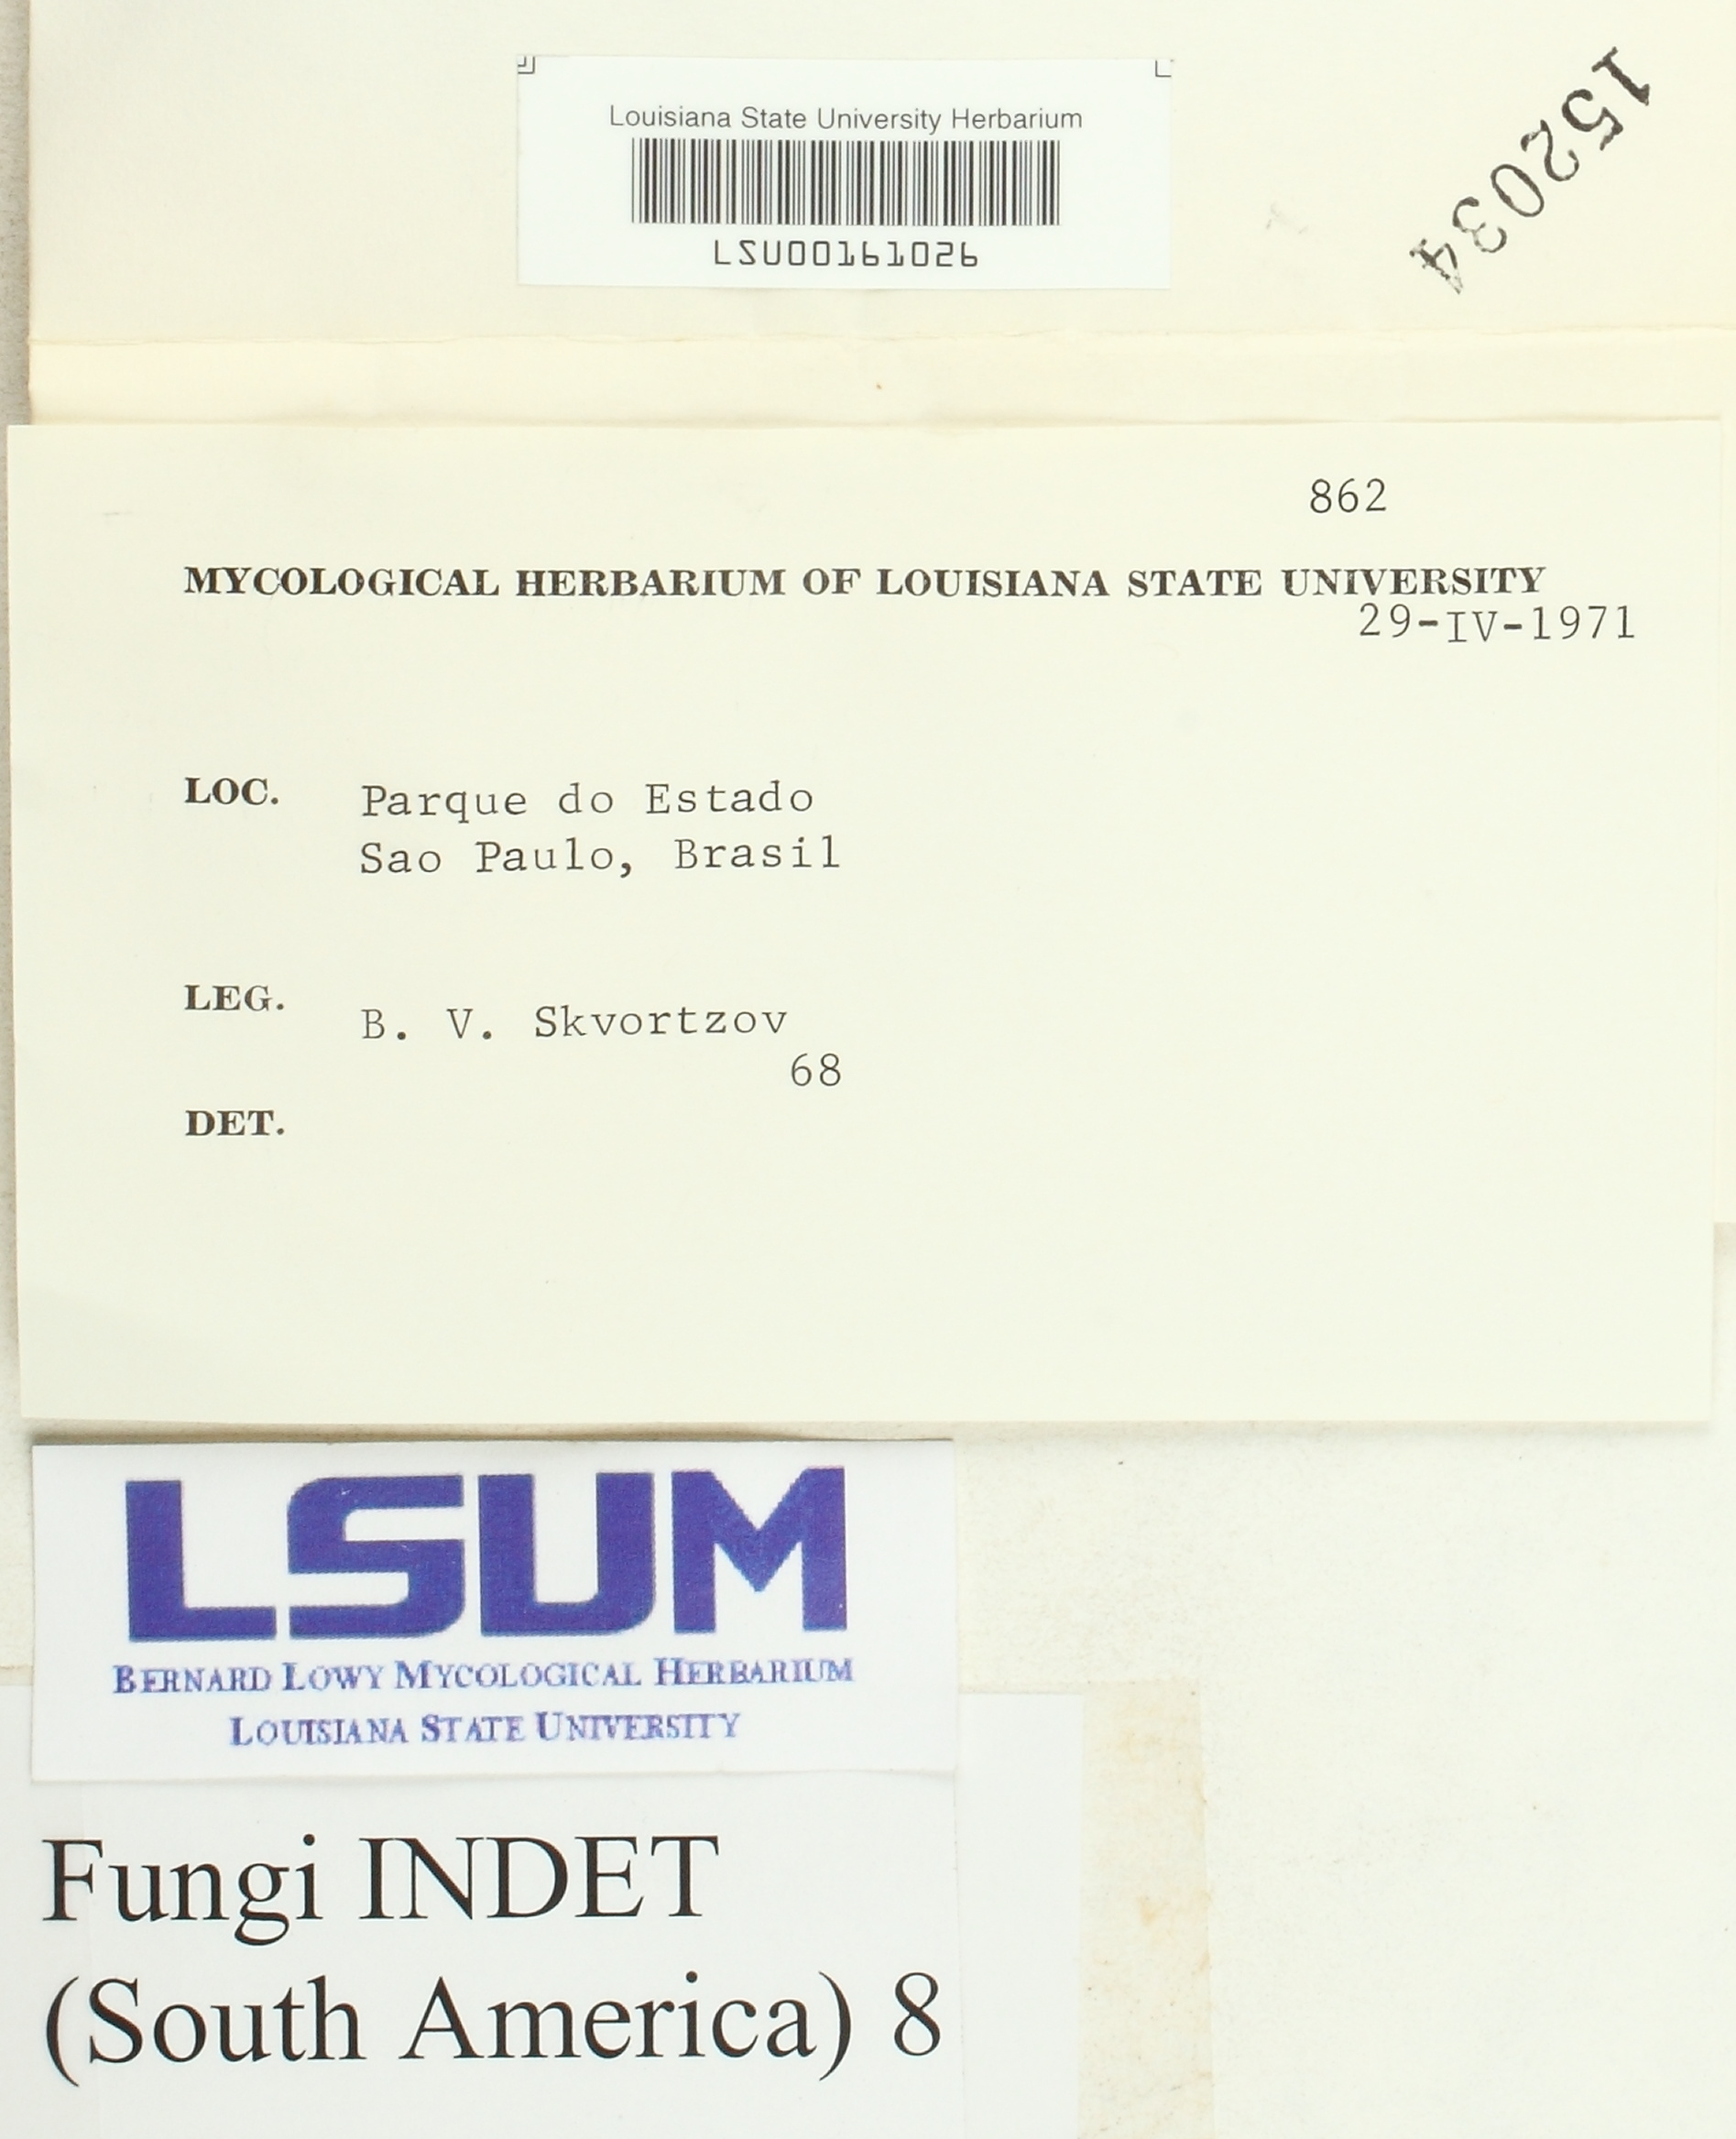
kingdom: Fungi
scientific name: Fungi
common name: Fungi
